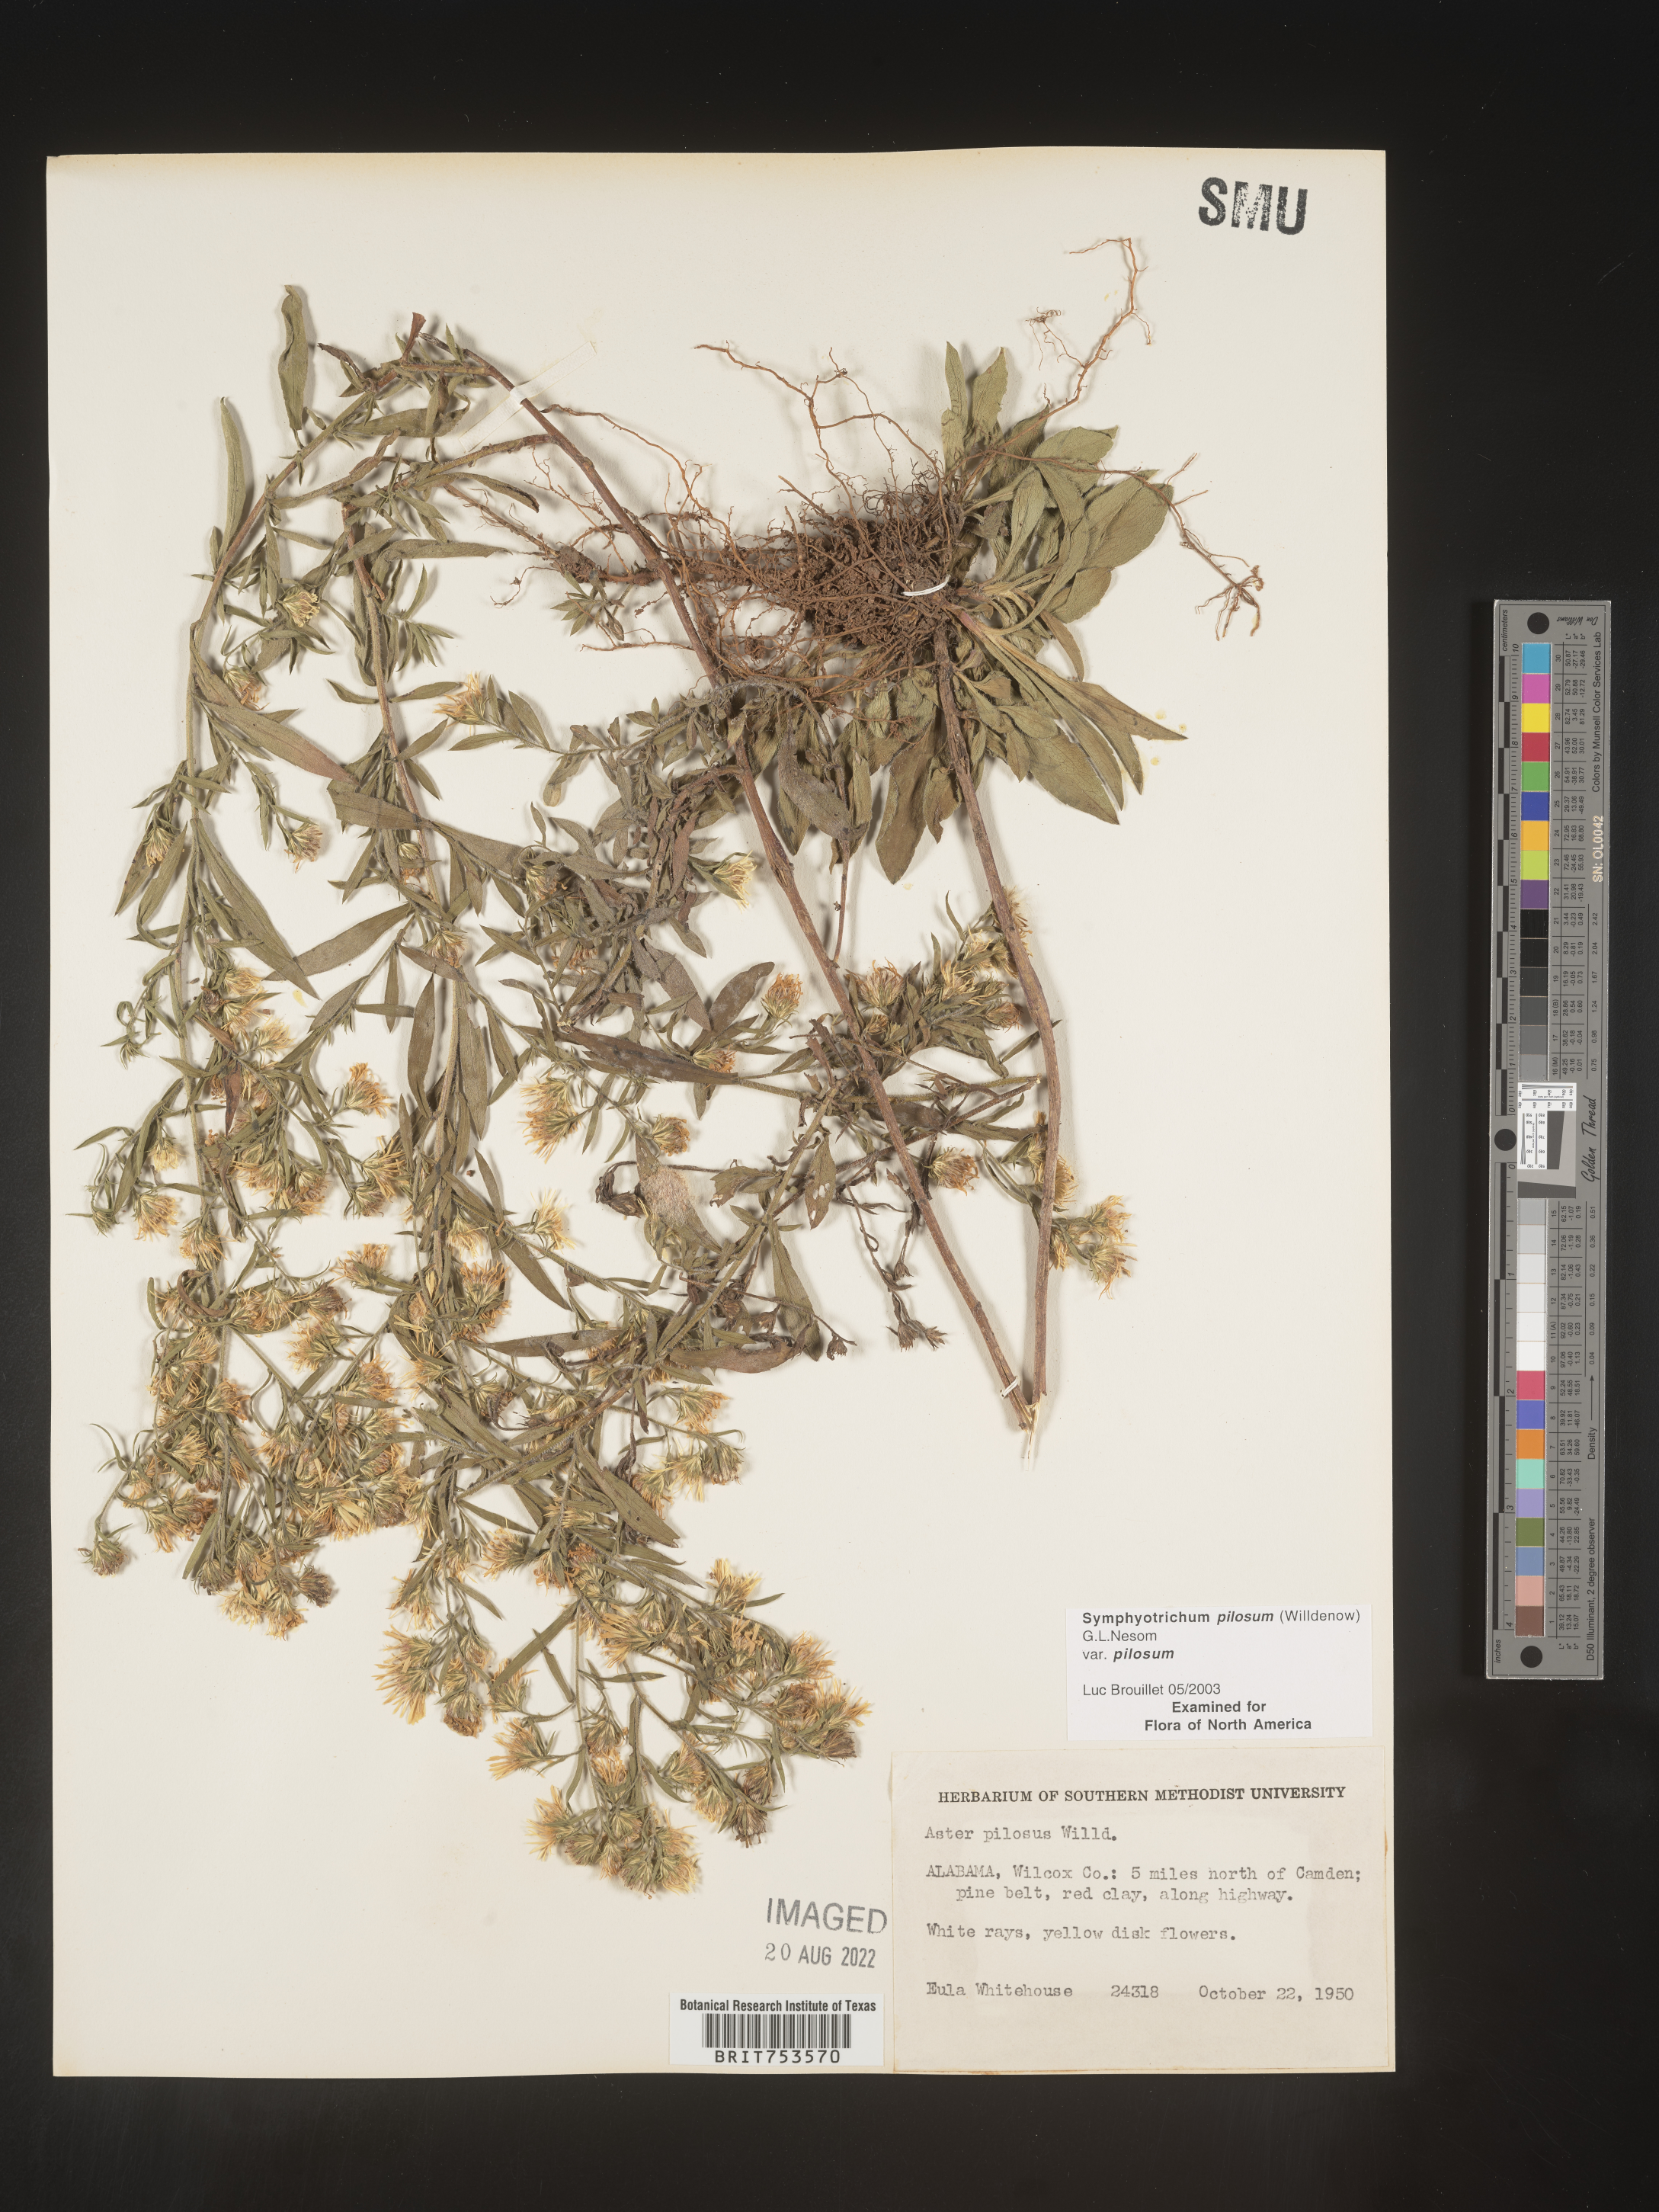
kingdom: Plantae
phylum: Tracheophyta
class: Magnoliopsida
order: Asterales
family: Asteraceae
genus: Symphyotrichum
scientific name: Symphyotrichum pilosum
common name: Awl aster
